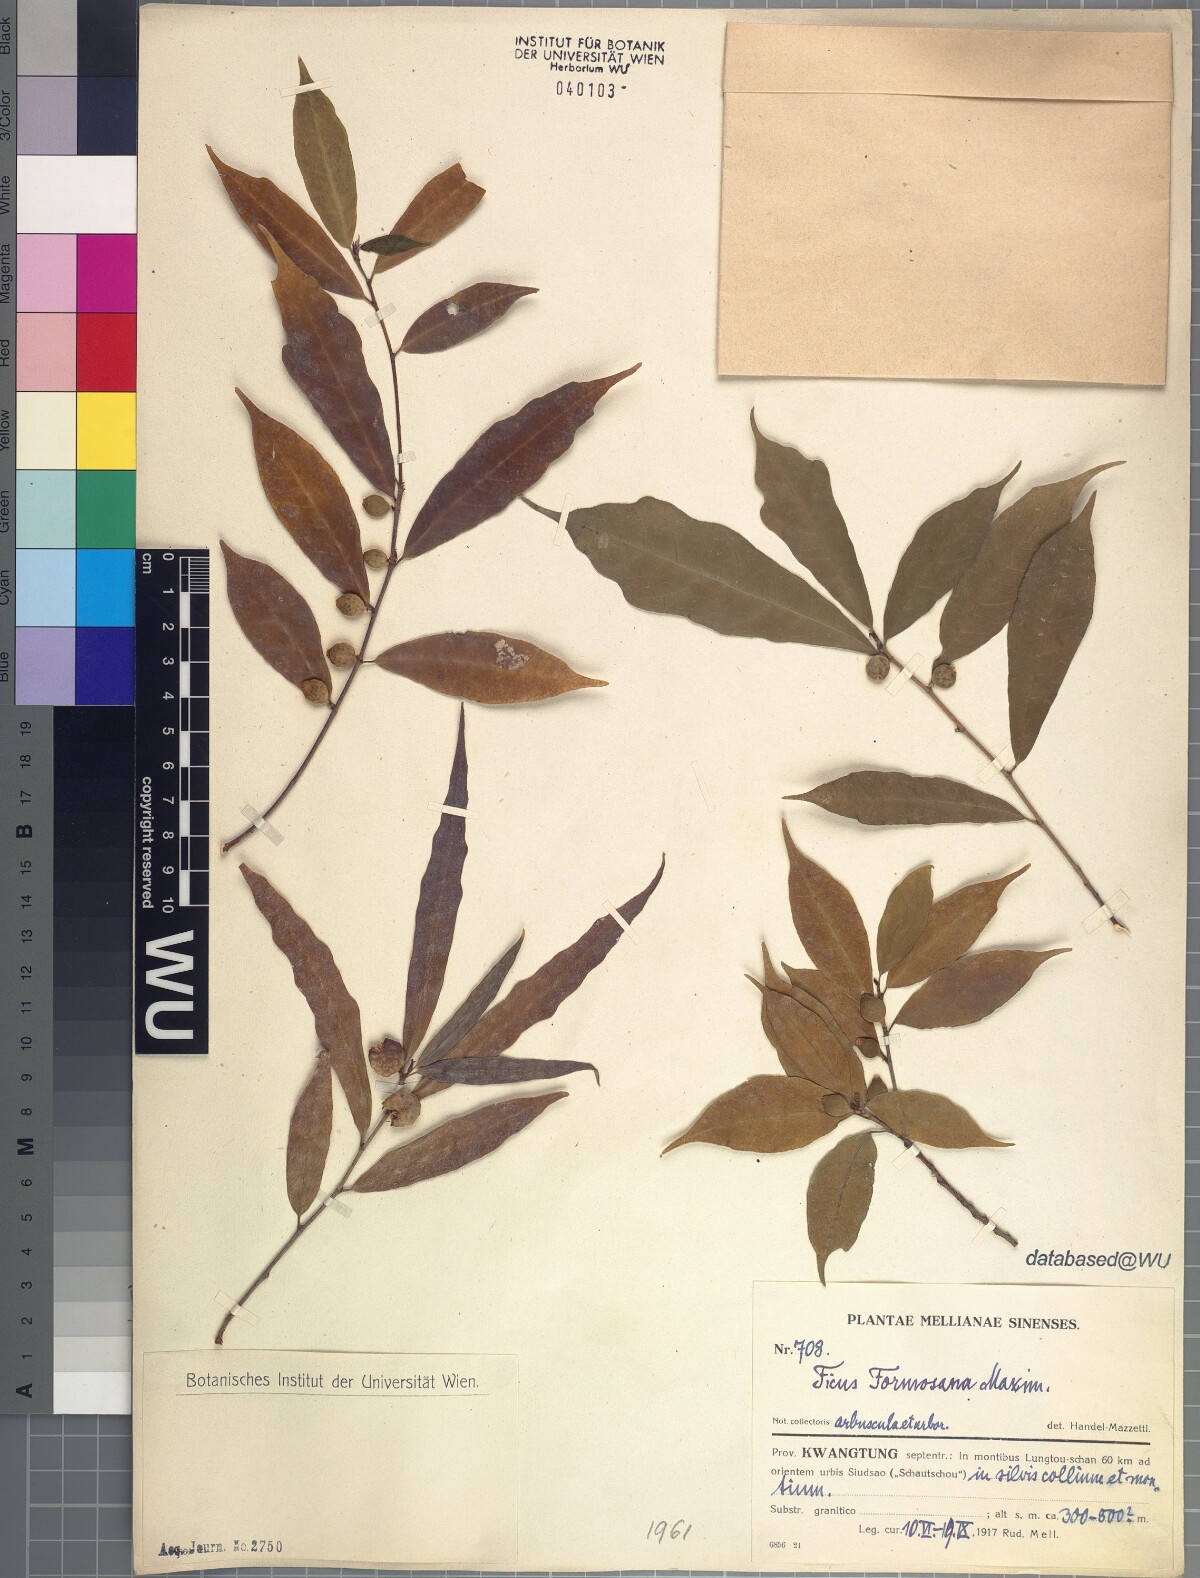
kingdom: Plantae
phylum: Tracheophyta
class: Magnoliopsida
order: Rosales
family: Moraceae
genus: Ficus
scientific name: Ficus formosana
